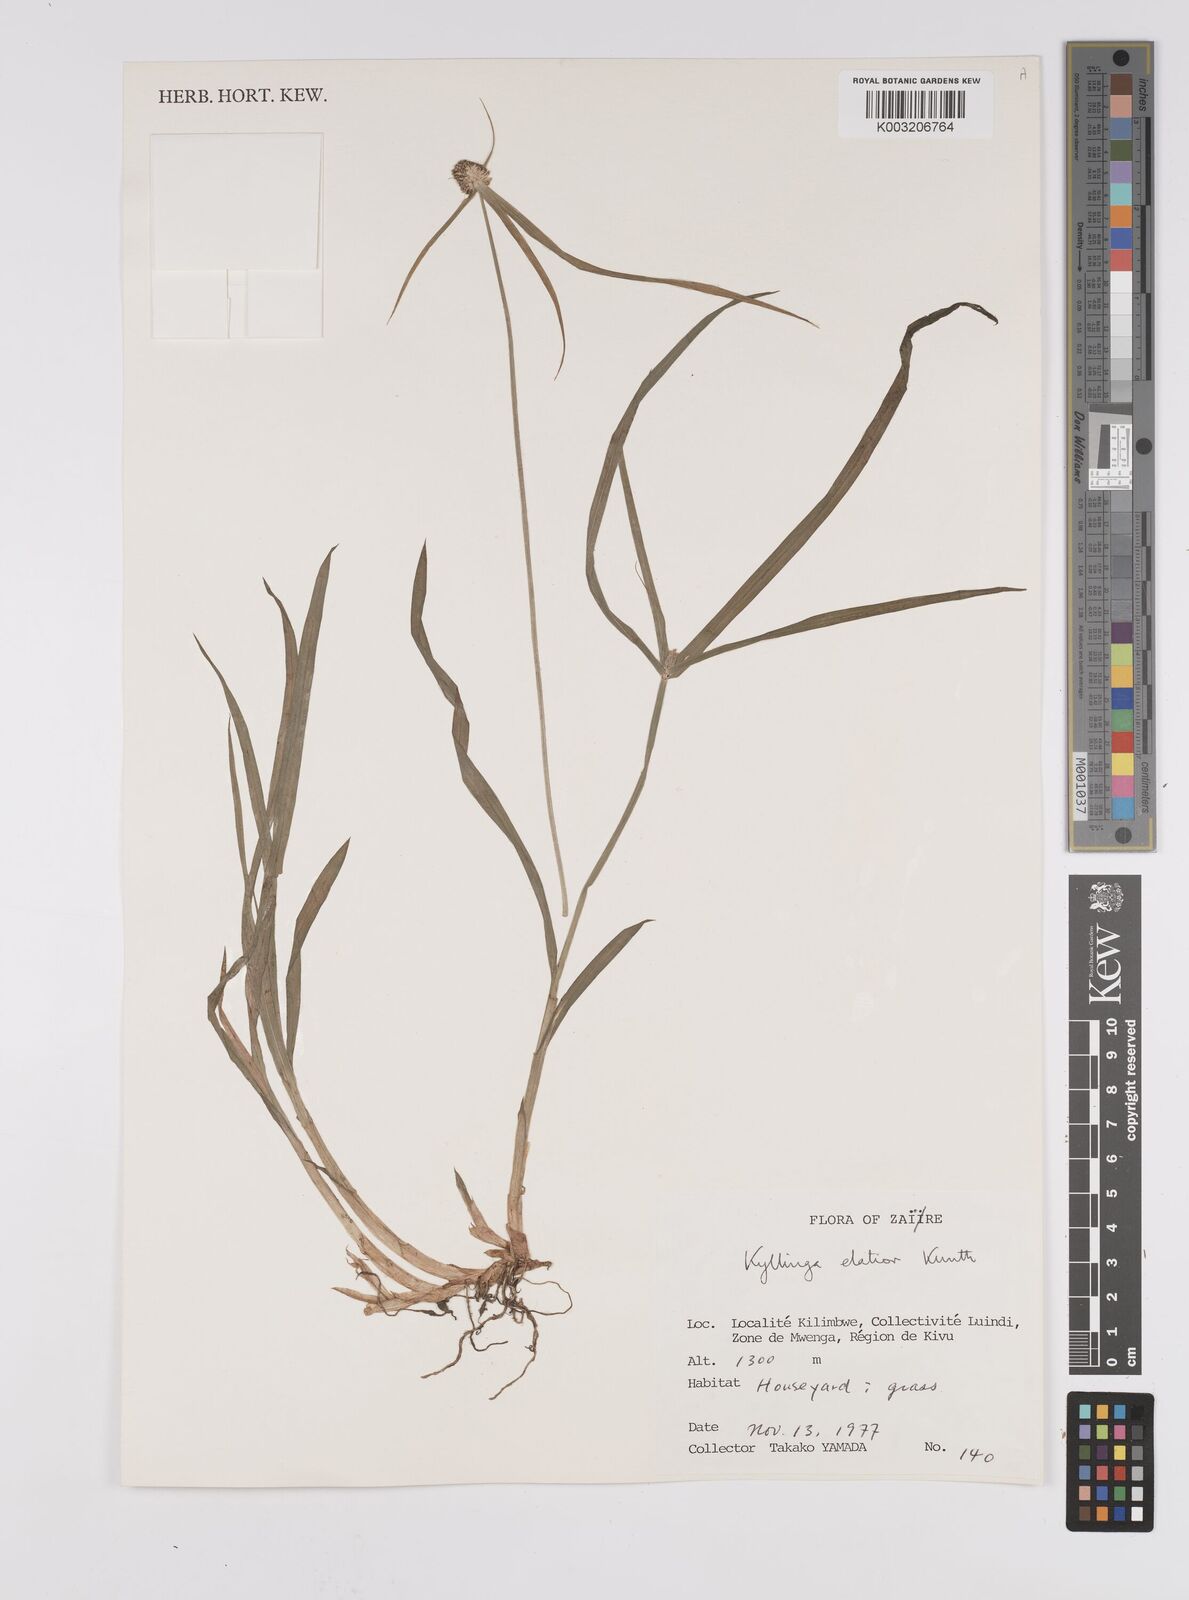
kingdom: Plantae
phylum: Tracheophyta
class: Liliopsida
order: Poales
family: Cyperaceae
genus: Cyperus
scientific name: Cyperus
